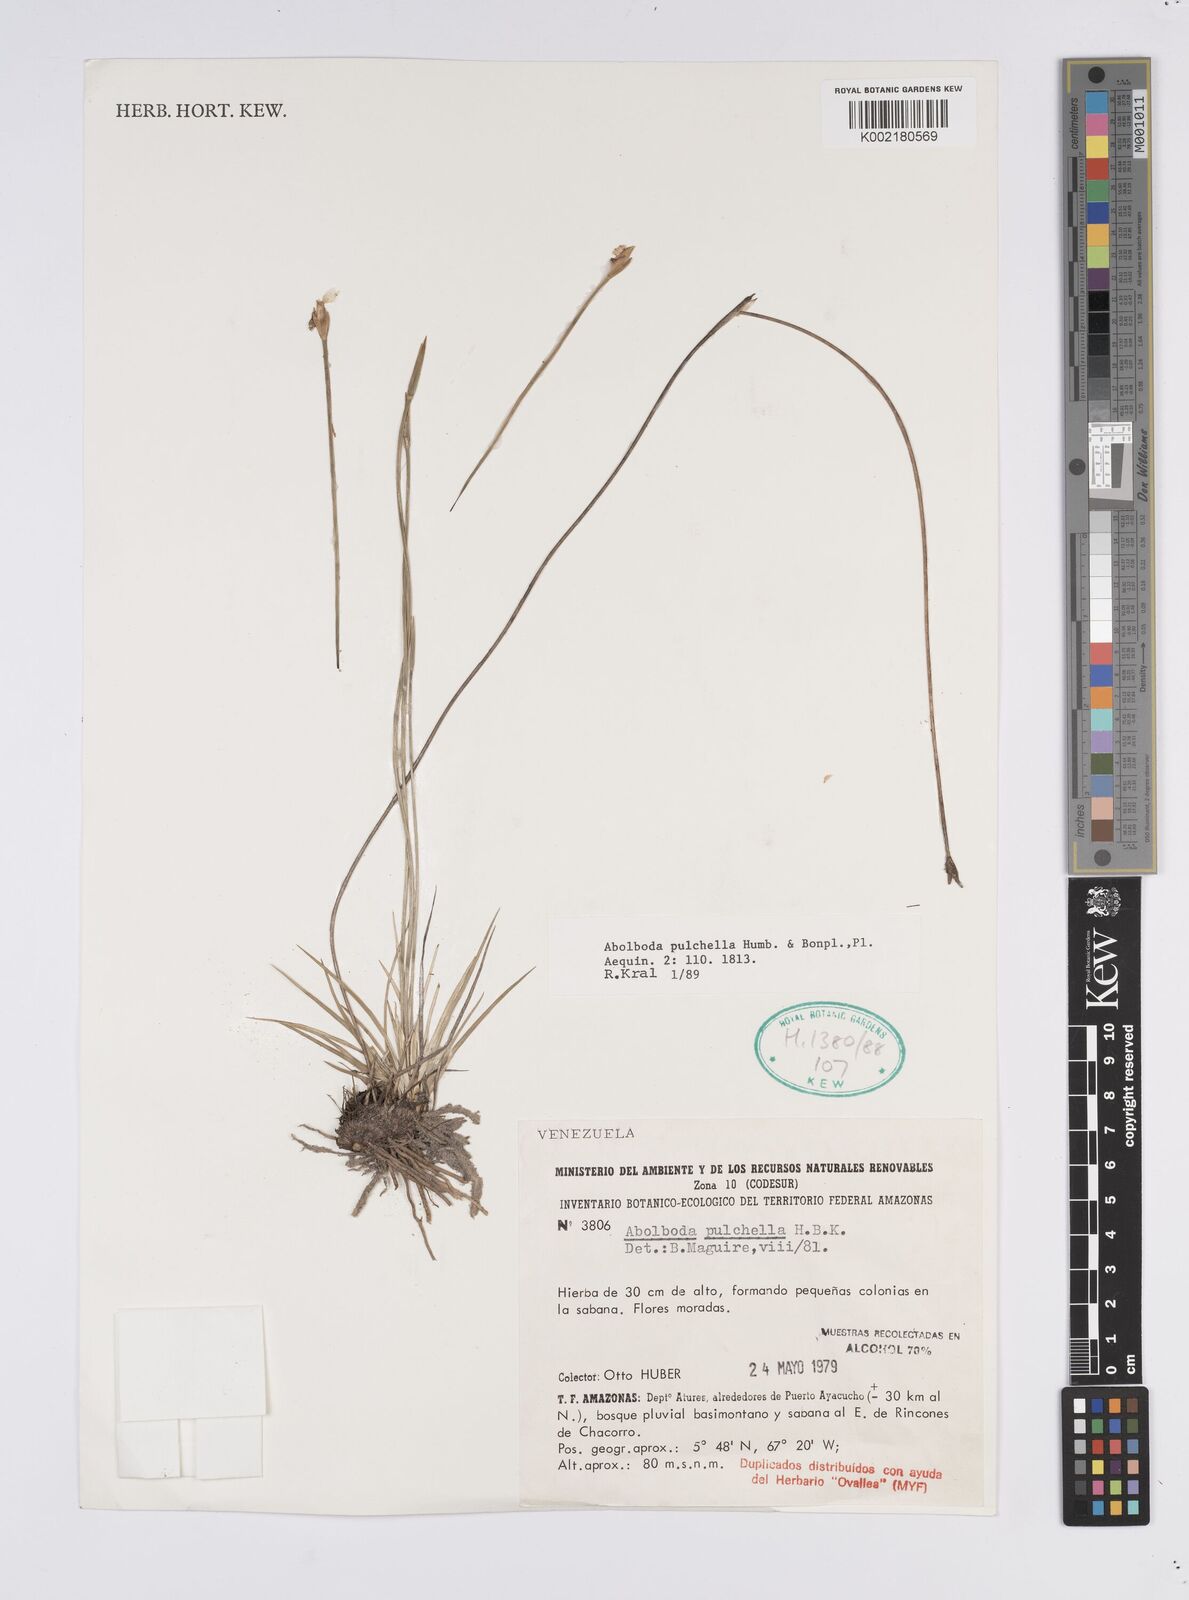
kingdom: Plantae
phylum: Tracheophyta
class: Liliopsida
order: Poales
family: Xyridaceae
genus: Abolboda
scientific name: Abolboda pulchella
